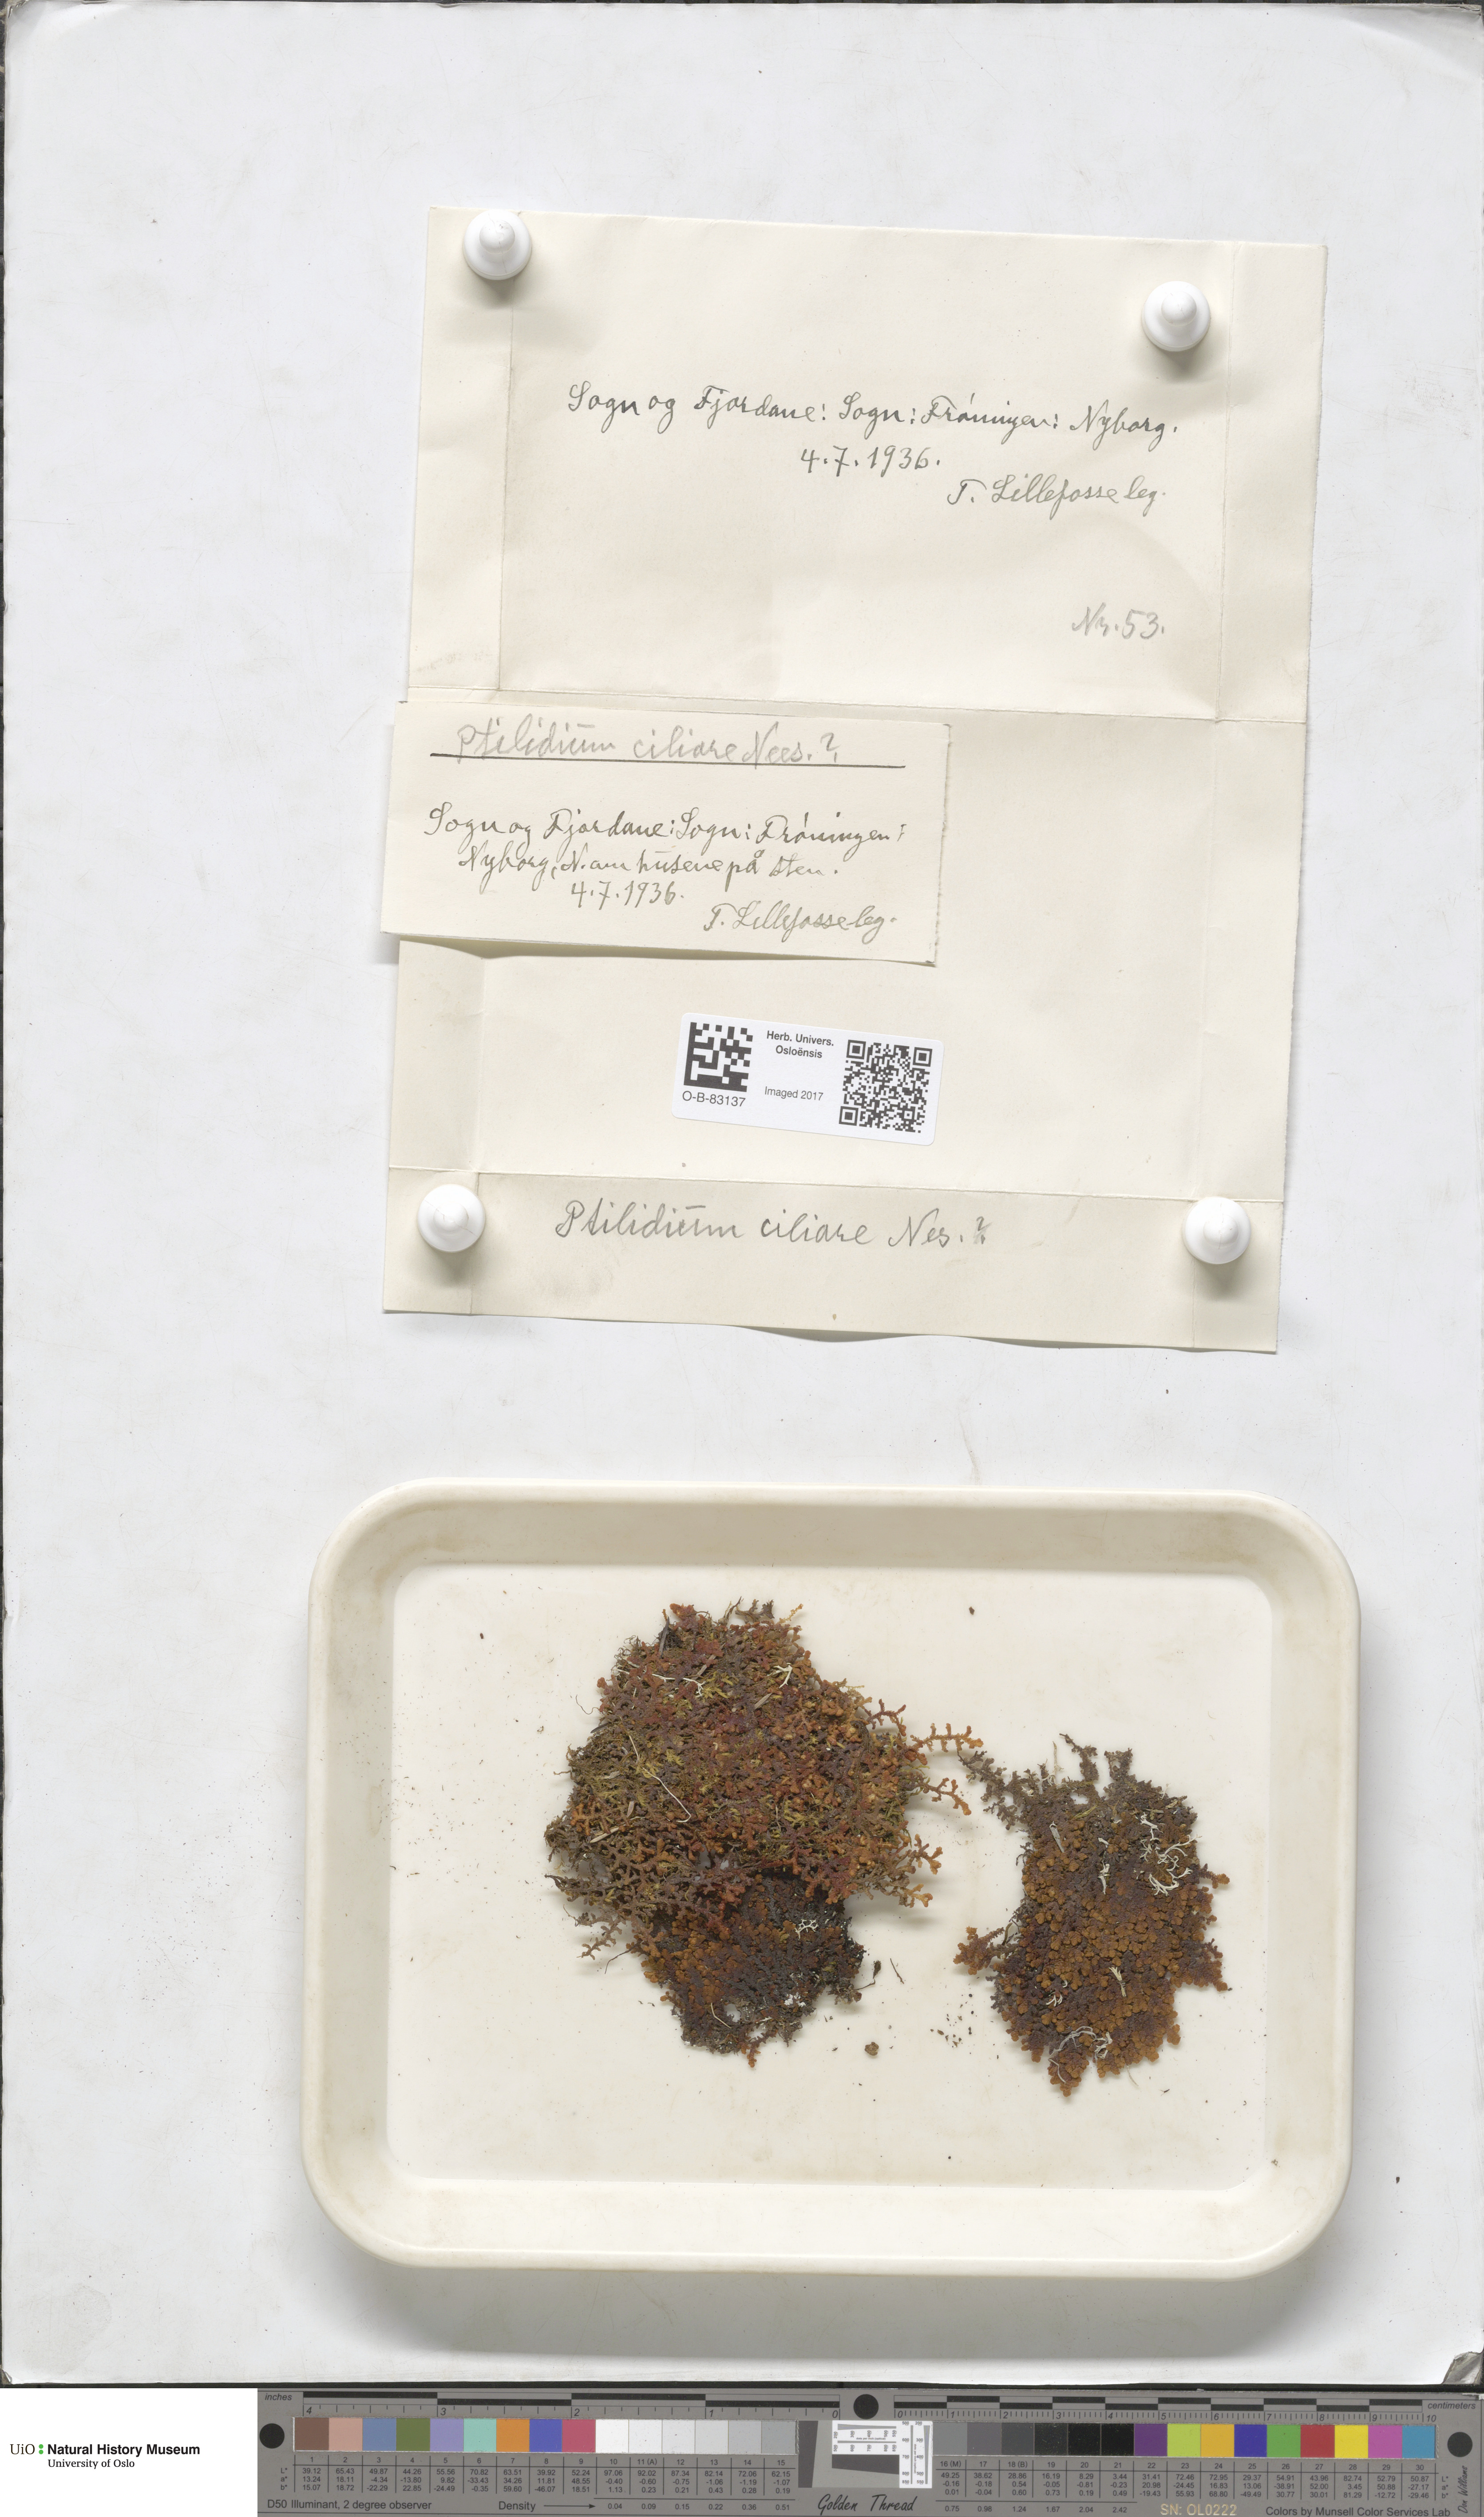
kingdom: Plantae
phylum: Marchantiophyta
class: Jungermanniopsida
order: Ptilidiales
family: Ptilidiaceae
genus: Ptilidium
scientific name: Ptilidium ciliare
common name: Ciliate fringewort
